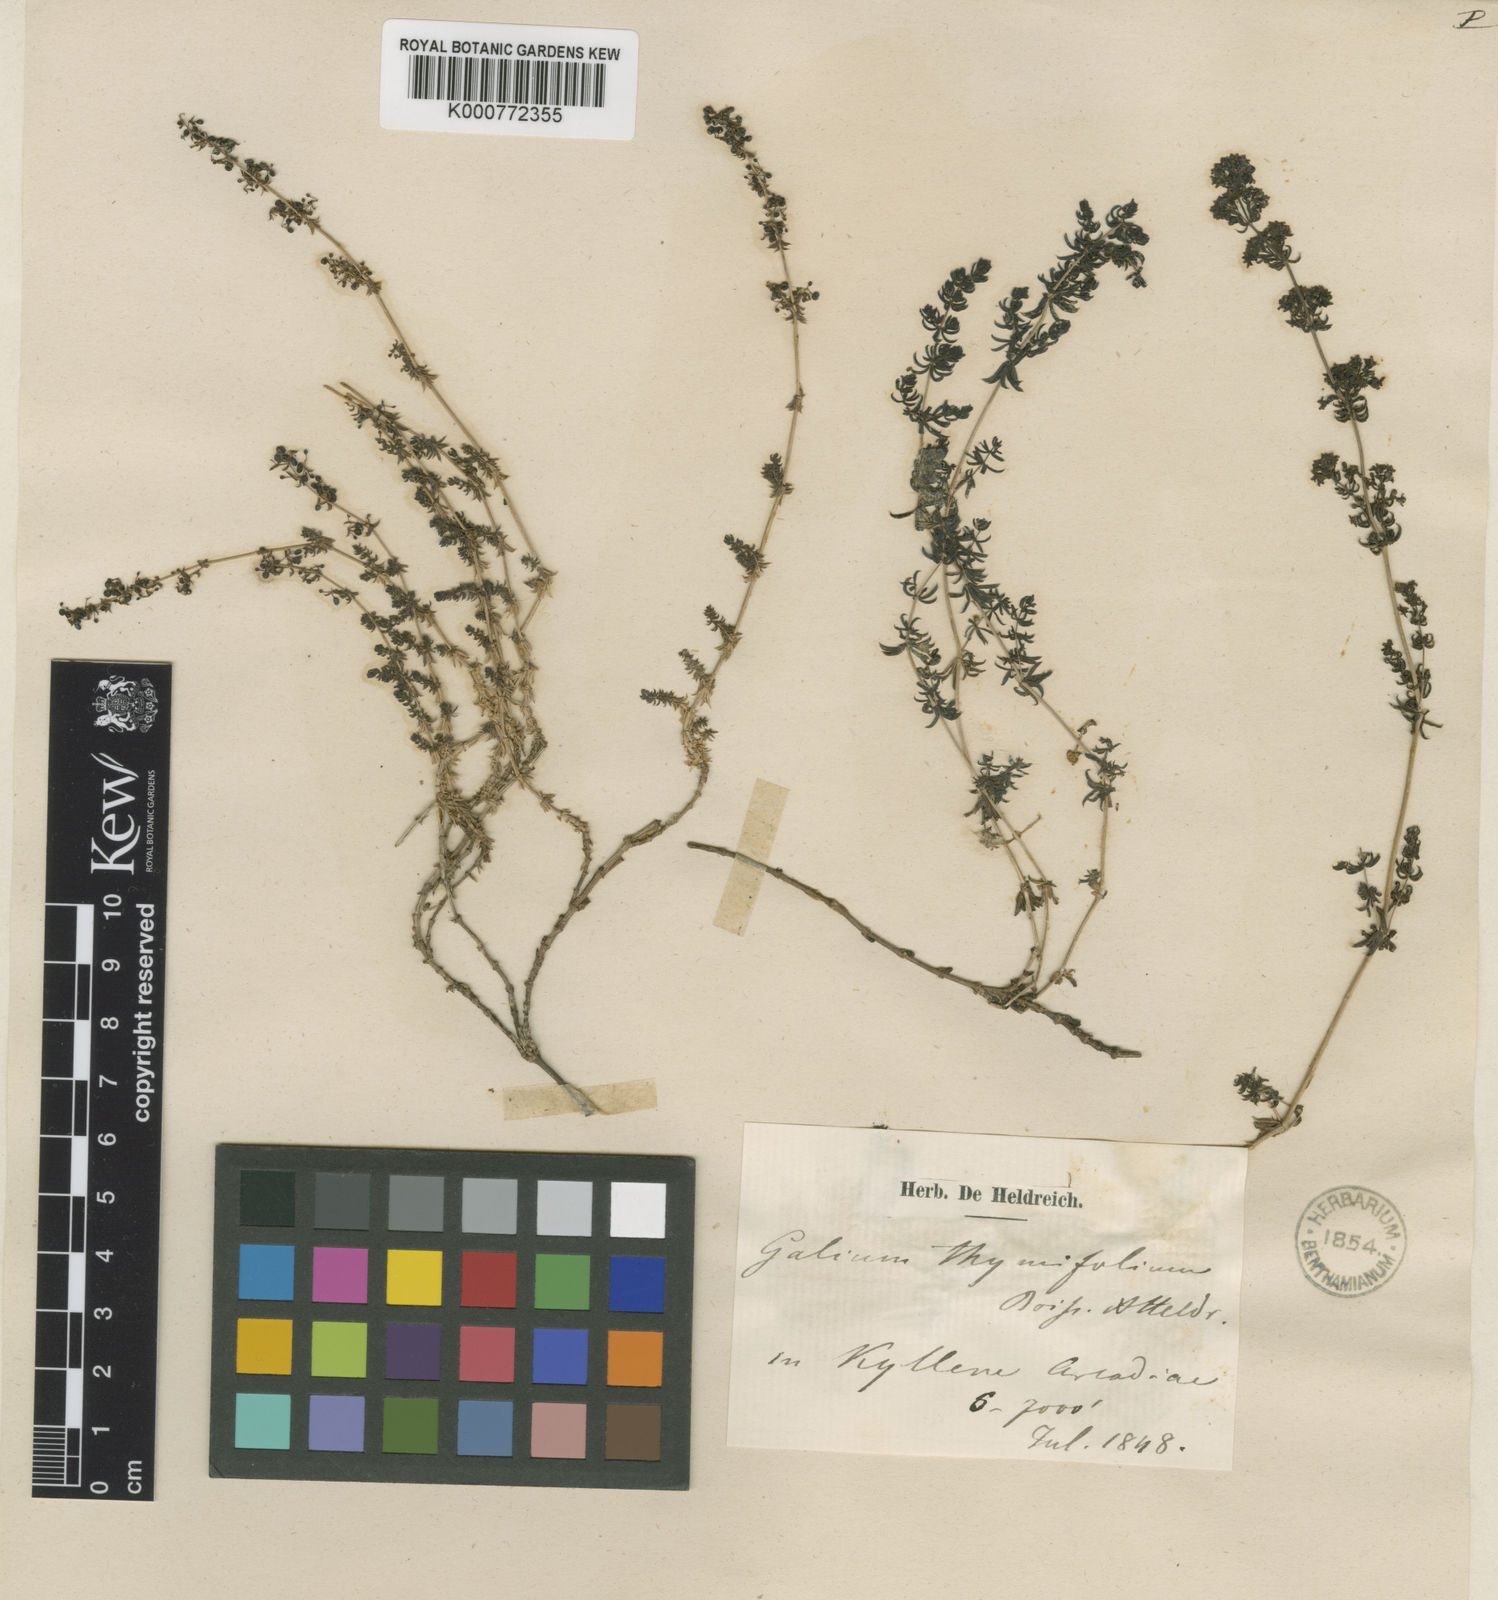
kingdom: Plantae
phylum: Tracheophyta
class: Magnoliopsida
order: Gentianales
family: Rubiaceae
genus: Galium
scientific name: Galium thymifolium
